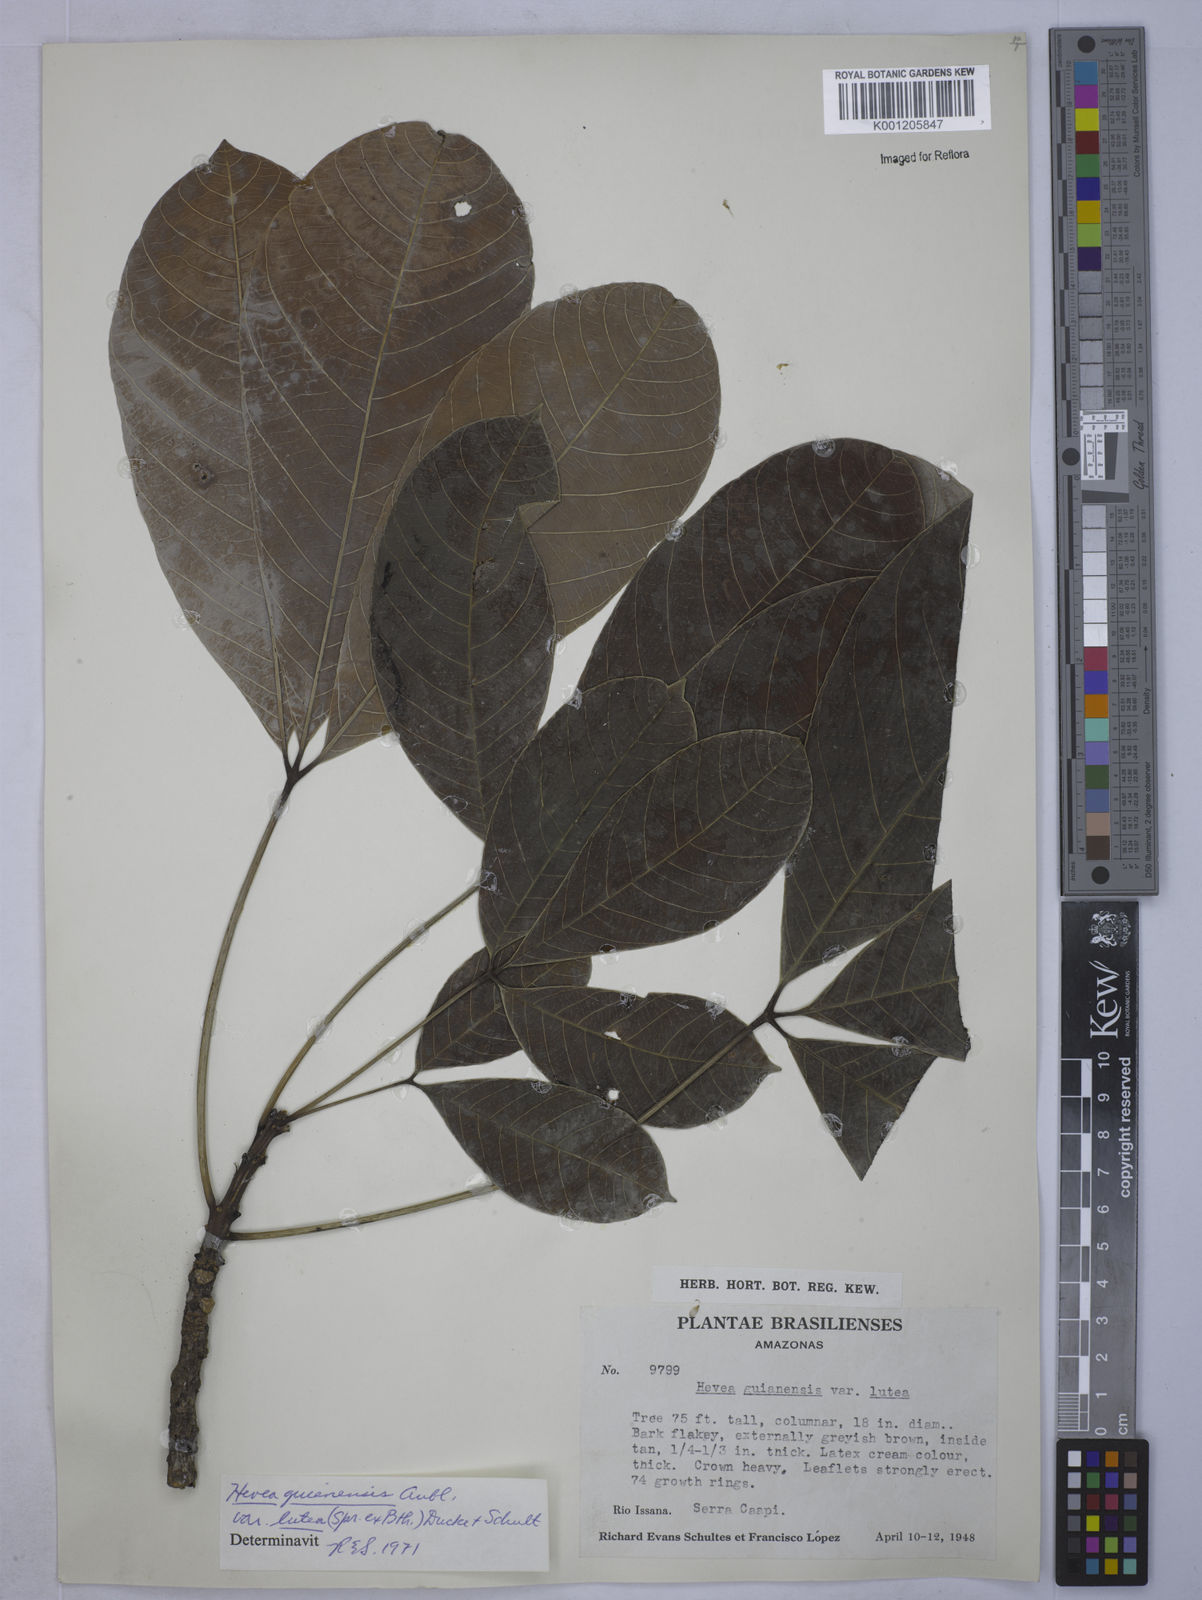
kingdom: Plantae
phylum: Tracheophyta
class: Magnoliopsida
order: Malpighiales
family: Euphorbiaceae
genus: Hevea
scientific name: Hevea guianensis
